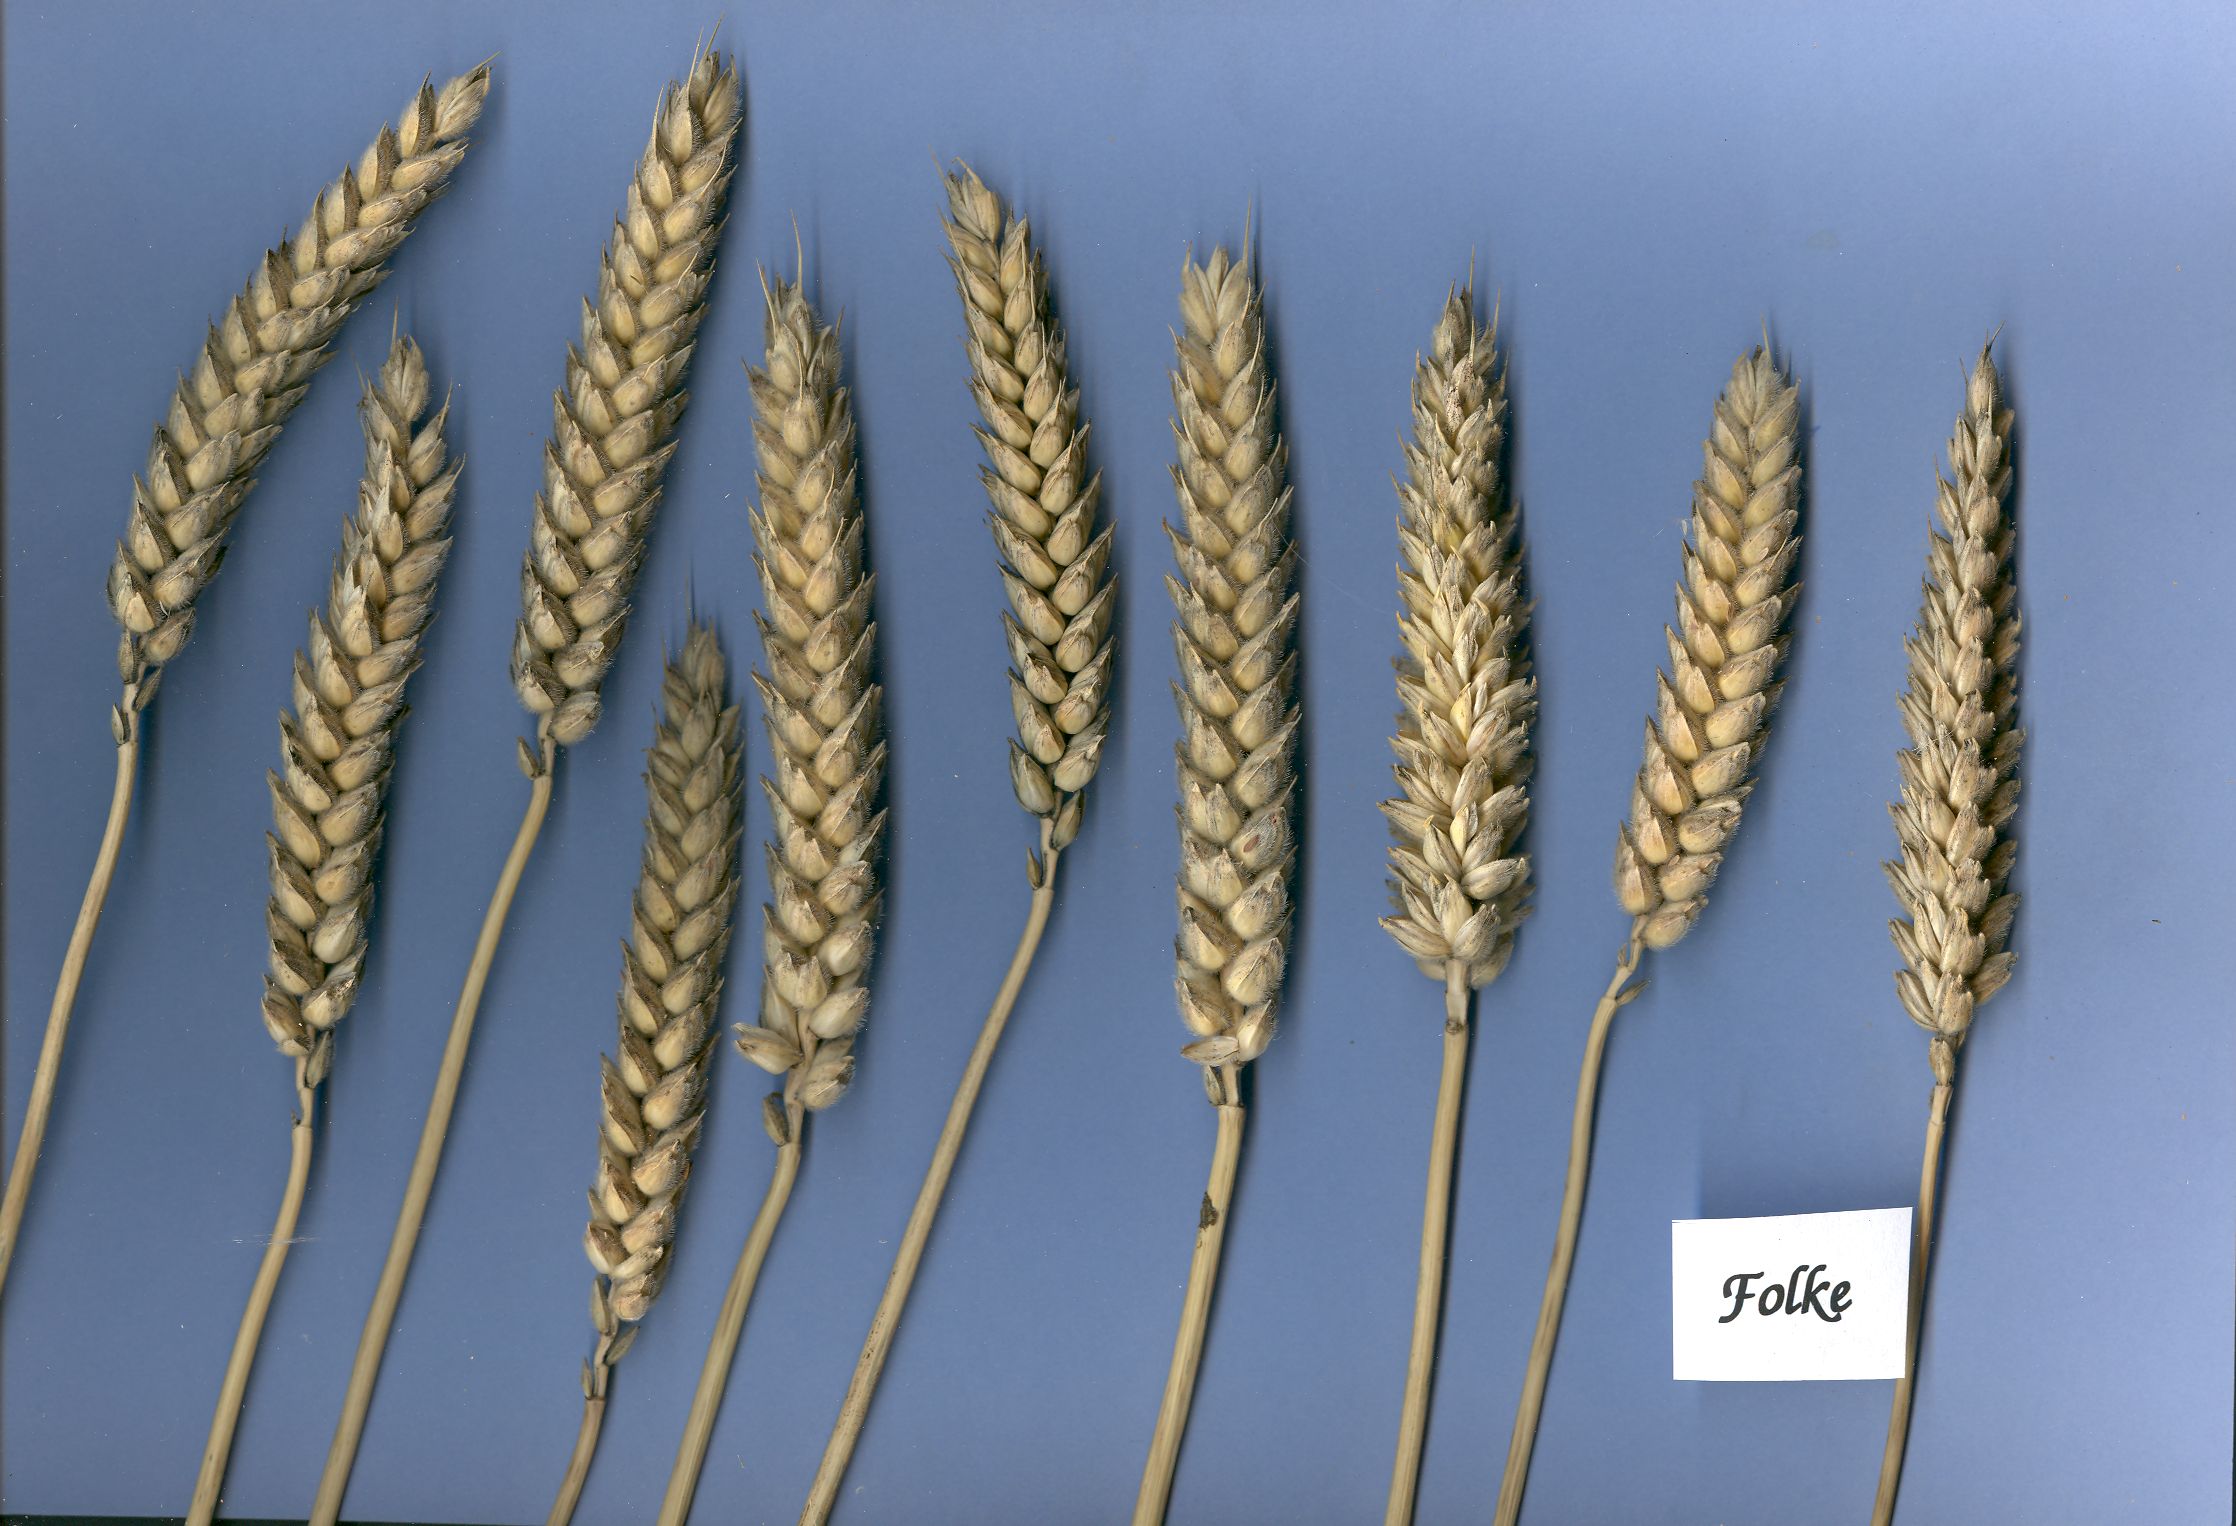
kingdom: Plantae
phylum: Tracheophyta
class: Liliopsida
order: Poales
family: Poaceae
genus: Triticum
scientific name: Triticum aestivum
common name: Common wheat
